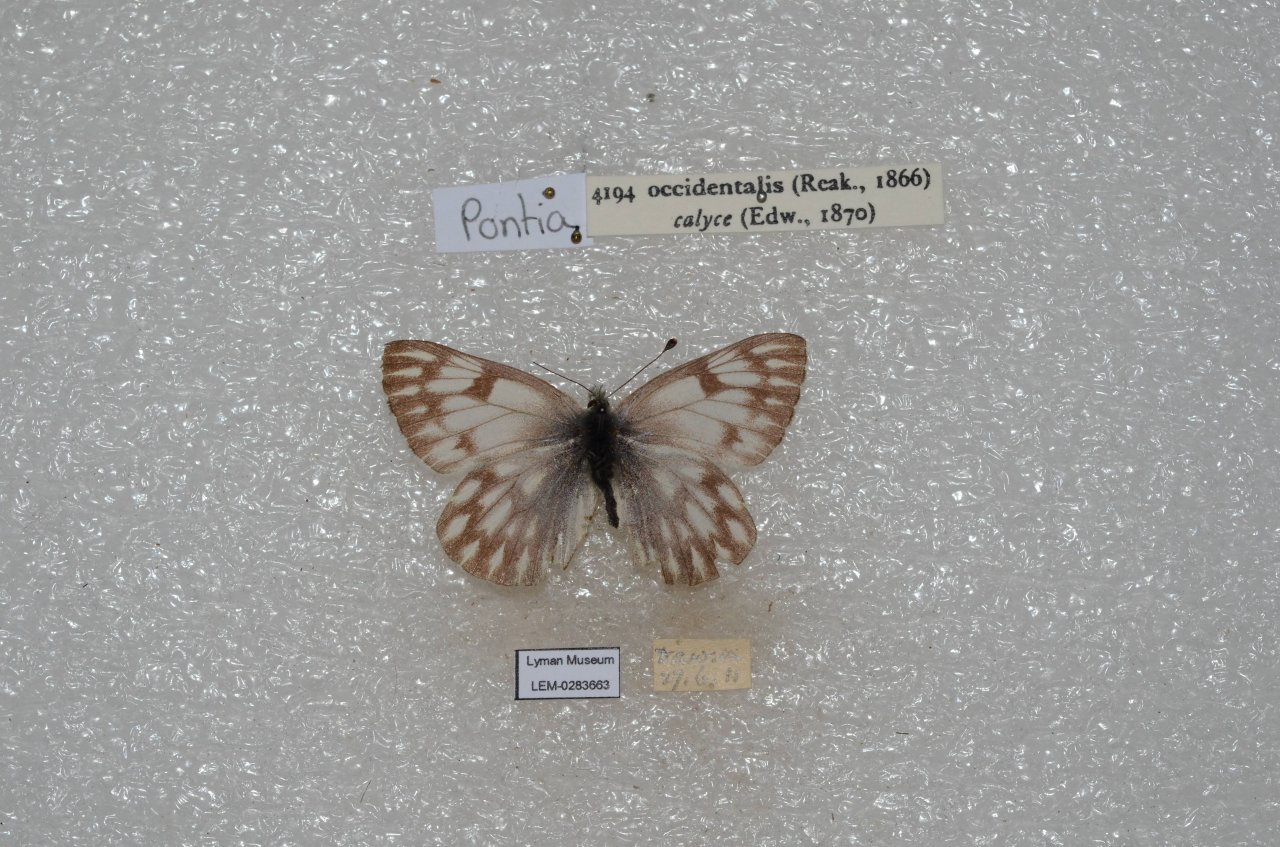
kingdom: Animalia
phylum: Arthropoda
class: Insecta
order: Lepidoptera
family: Pieridae
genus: Pontia
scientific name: Pontia occidentalis
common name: Western White
